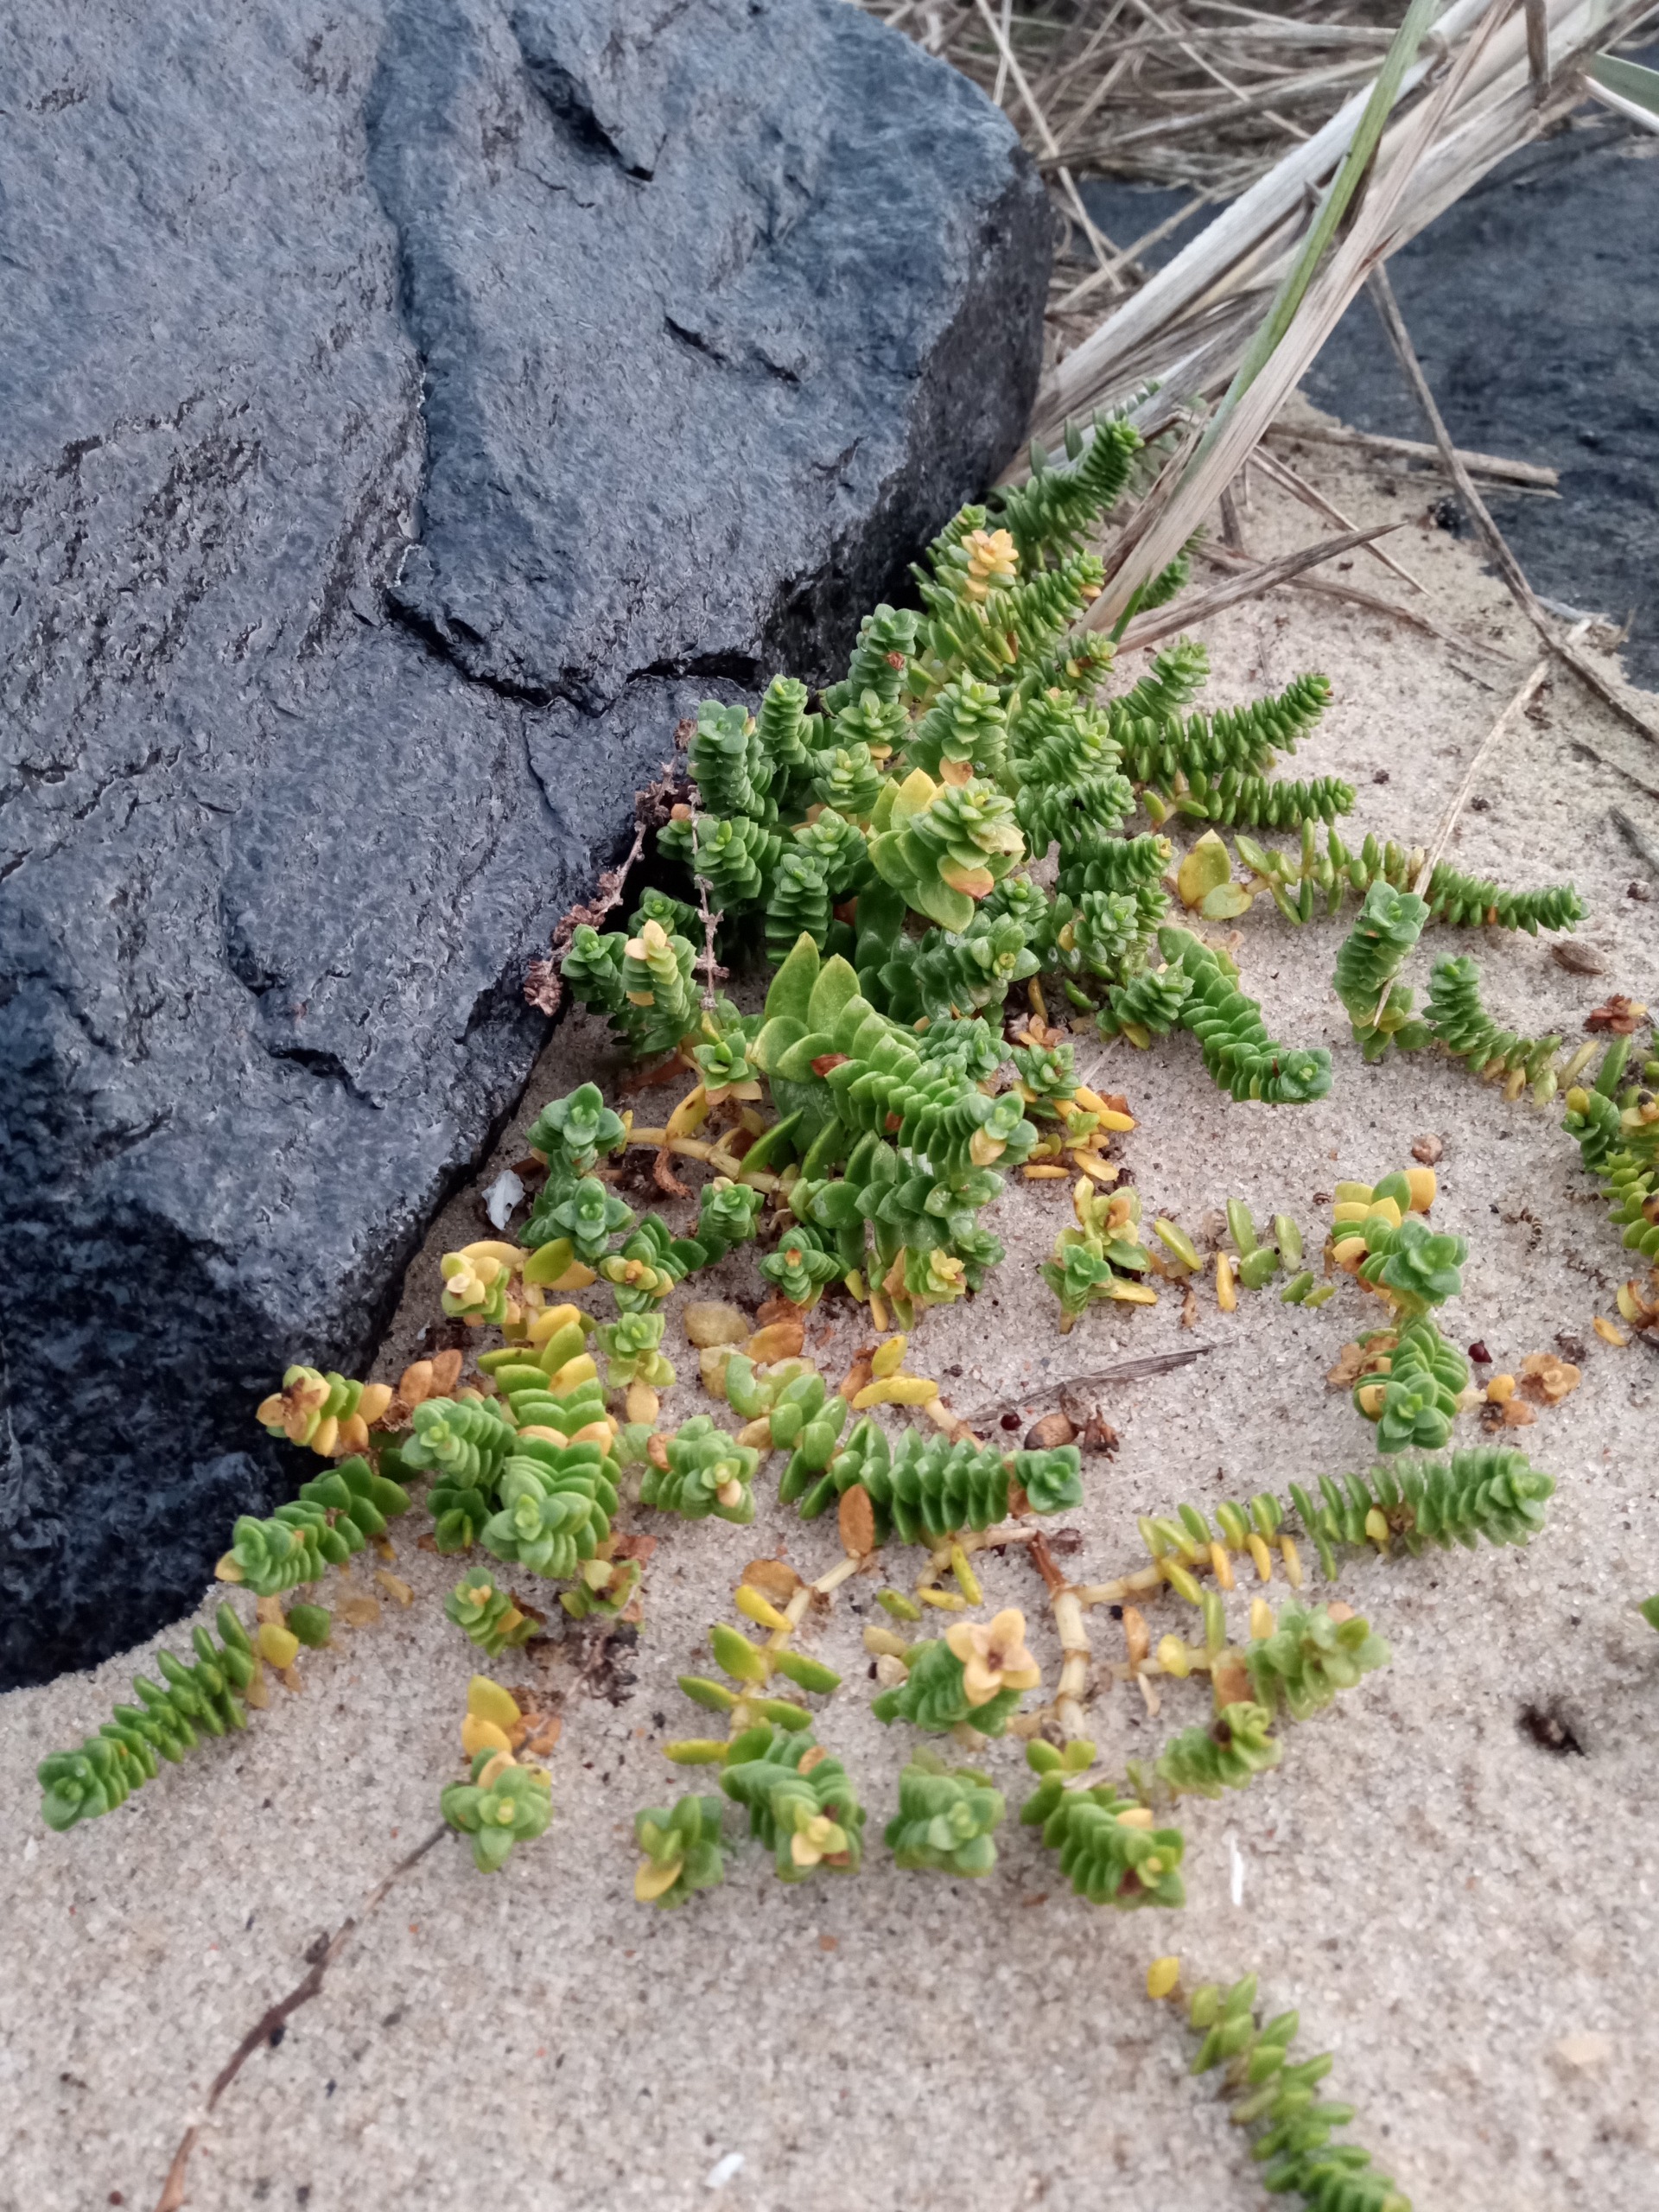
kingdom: Plantae
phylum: Tracheophyta
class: Magnoliopsida
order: Caryophyllales
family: Caryophyllaceae
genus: Honckenya
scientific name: Honckenya peploides
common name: Strandarve
